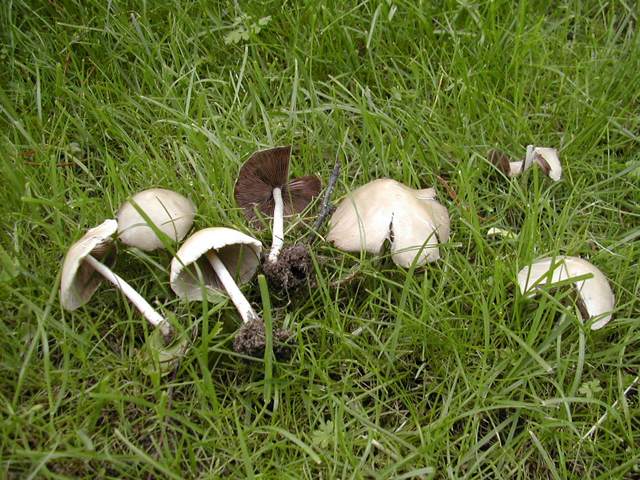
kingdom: Fungi
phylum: Basidiomycota
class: Agaricomycetes
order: Agaricales
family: Psathyrellaceae
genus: Candolleomyces
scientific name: Candolleomyces candolleanus
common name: Candolles mørkhat
